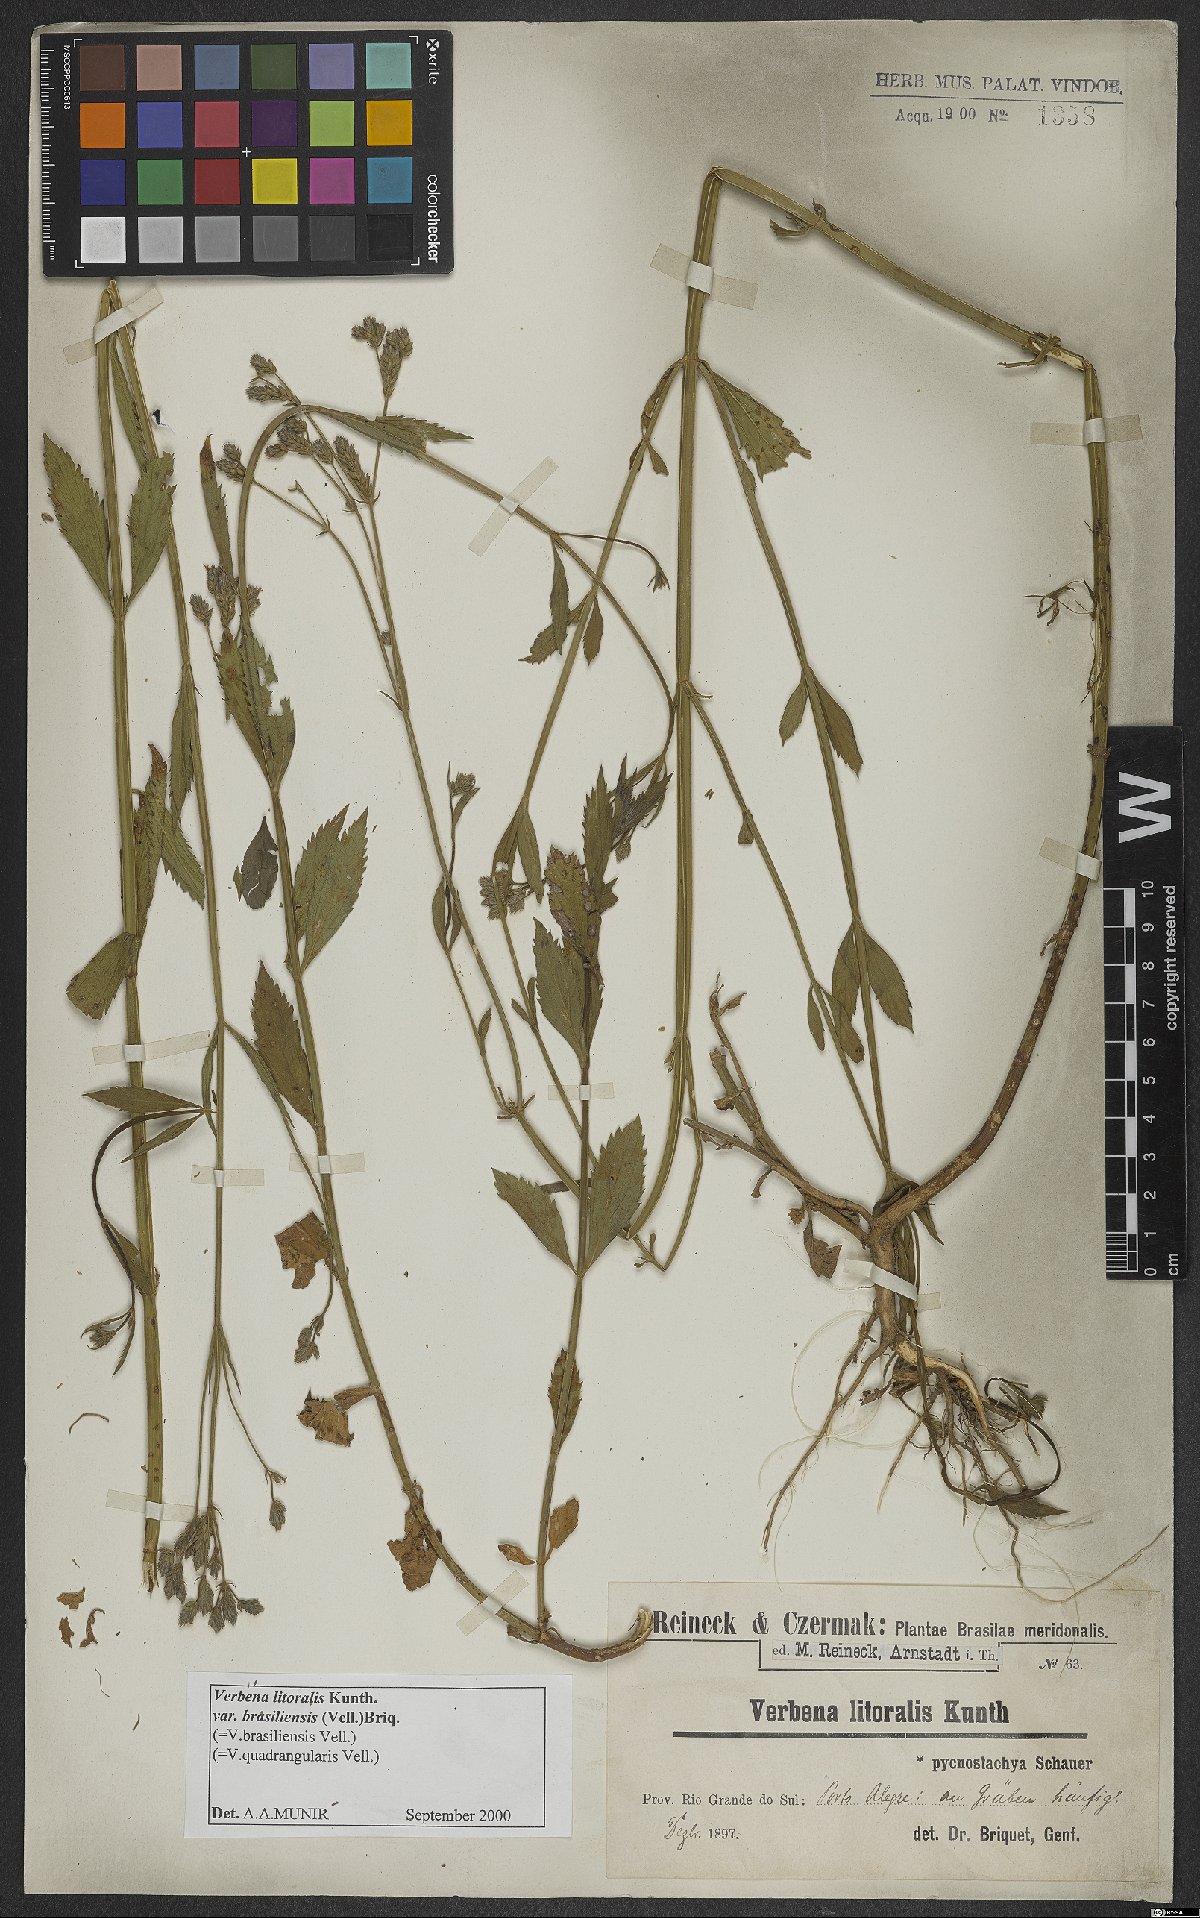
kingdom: Plantae
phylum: Tracheophyta
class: Magnoliopsida
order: Lamiales
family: Verbenaceae
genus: Verbena
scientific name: Verbena brasiliensis
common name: Brazilian vervain
